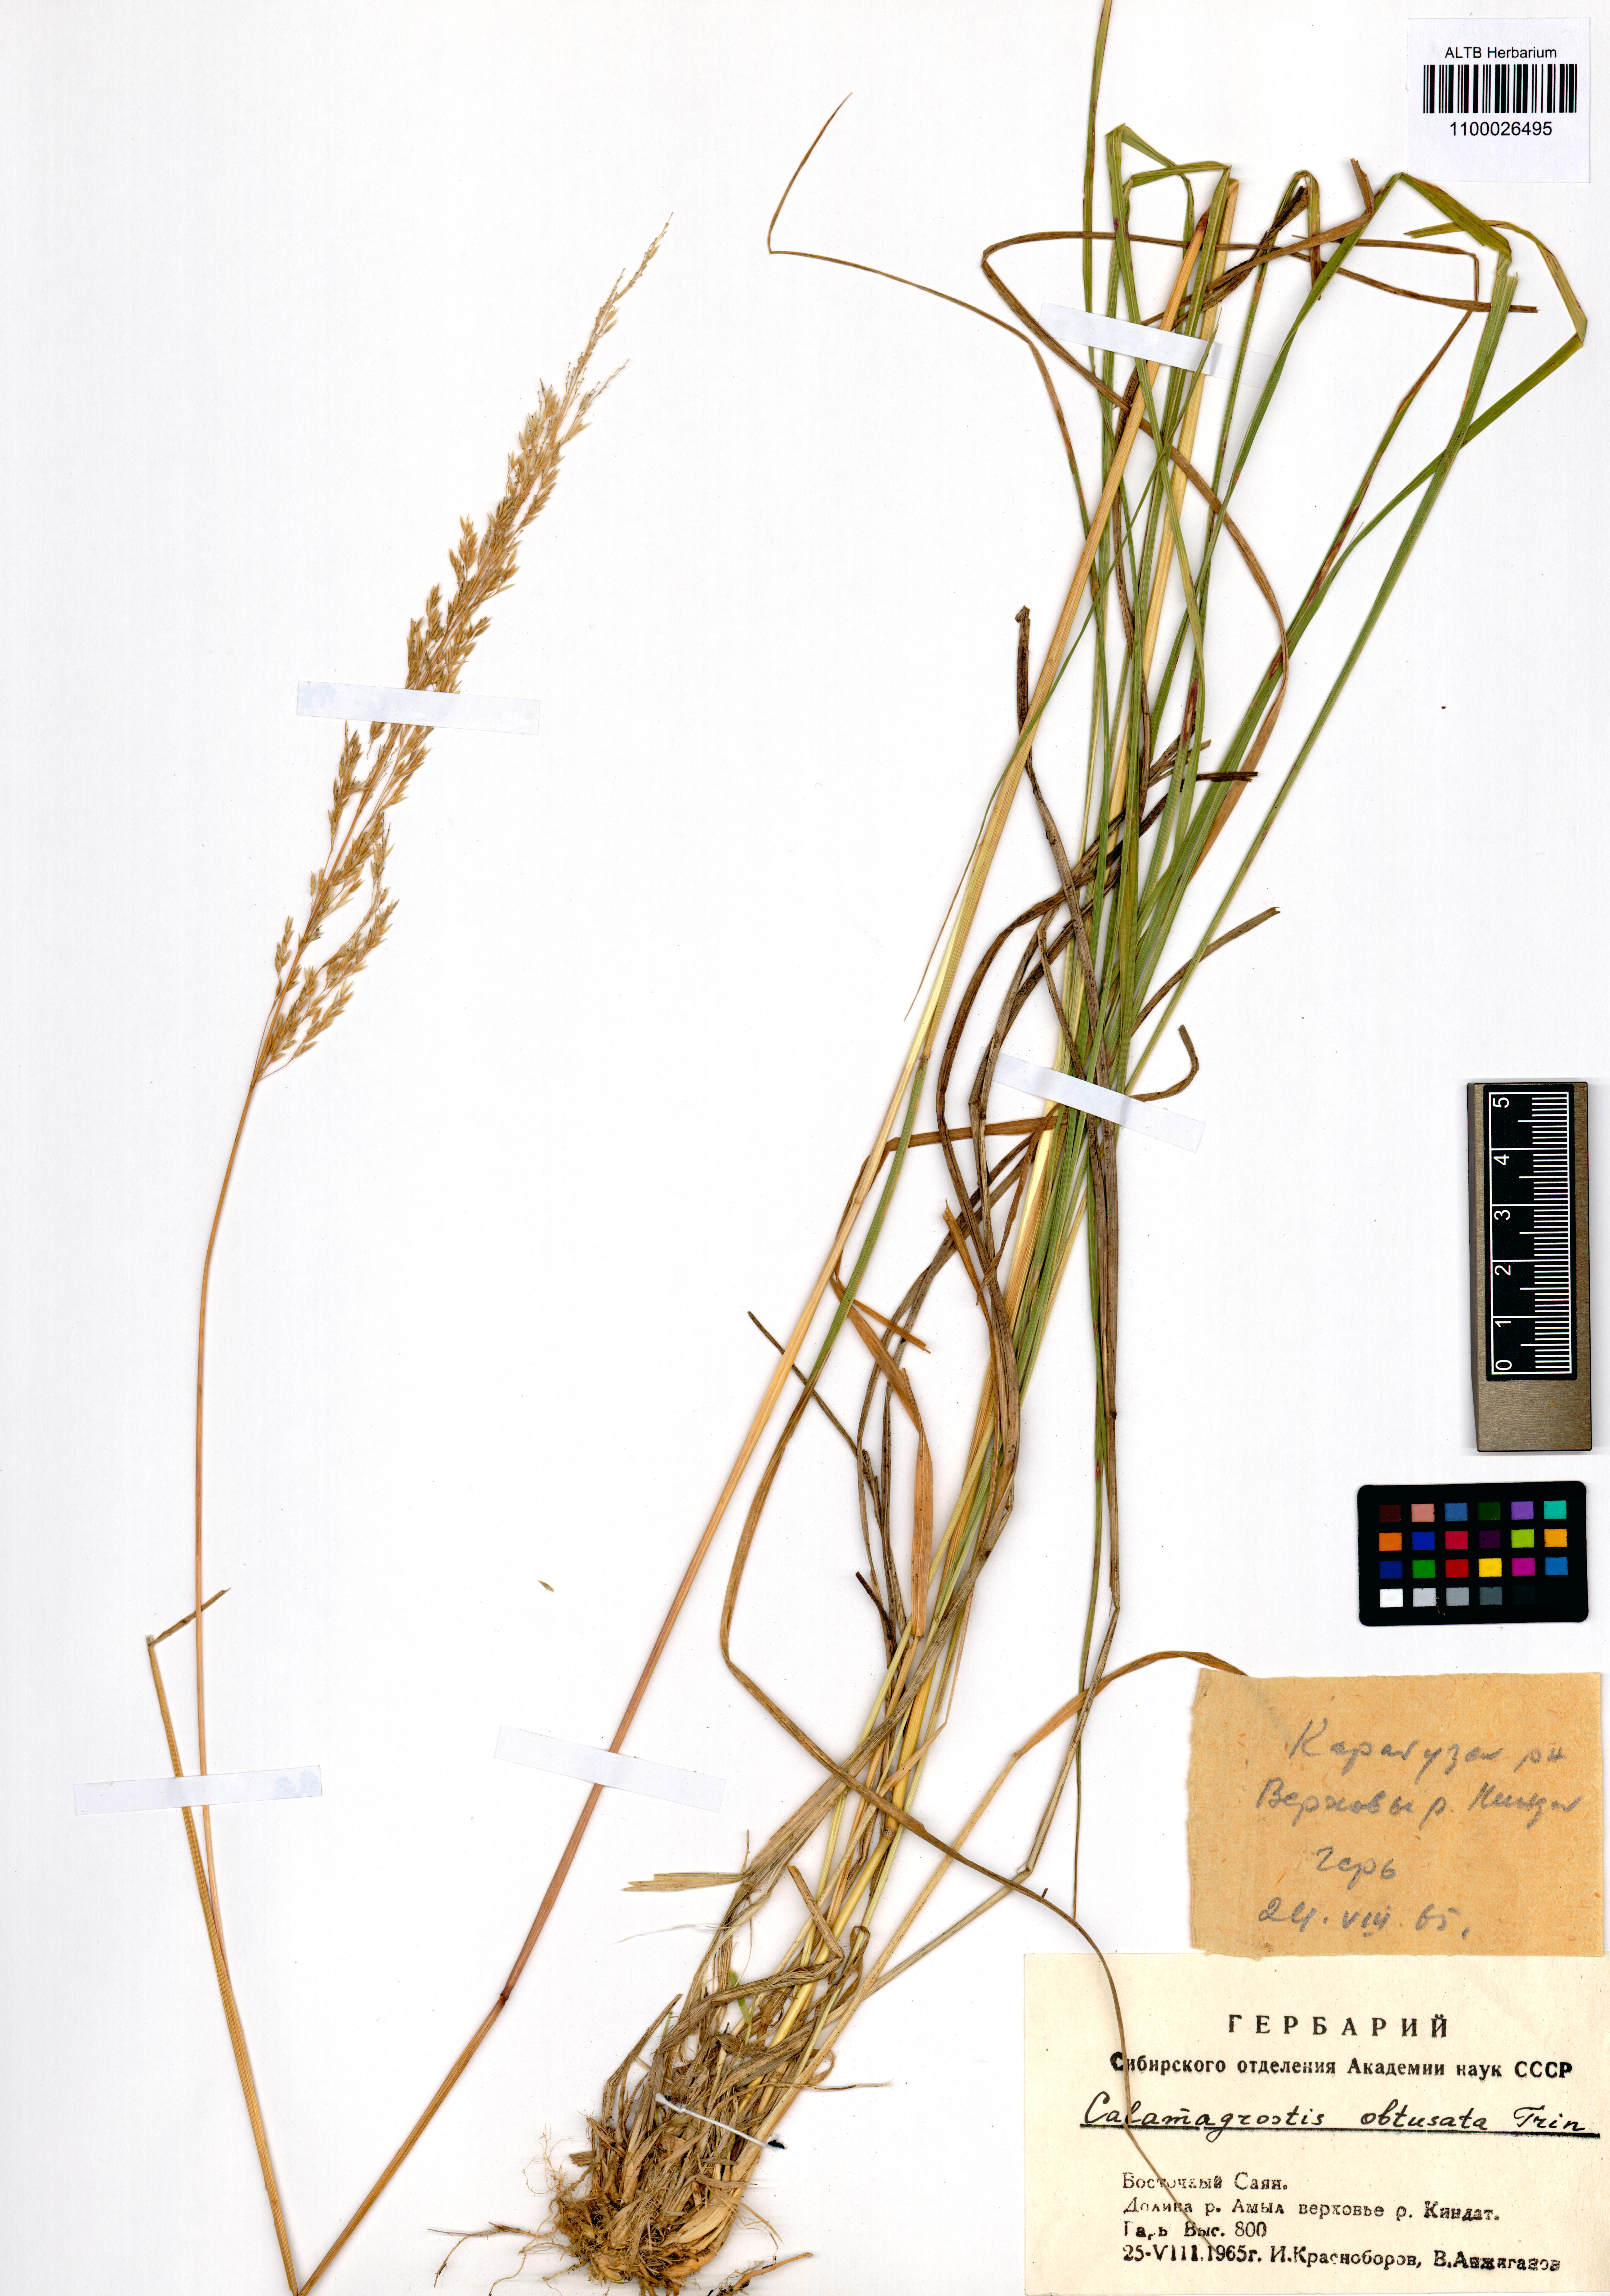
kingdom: Plantae
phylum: Tracheophyta
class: Liliopsida
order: Poales
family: Poaceae
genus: Calamagrostis
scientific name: Calamagrostis obtusata
